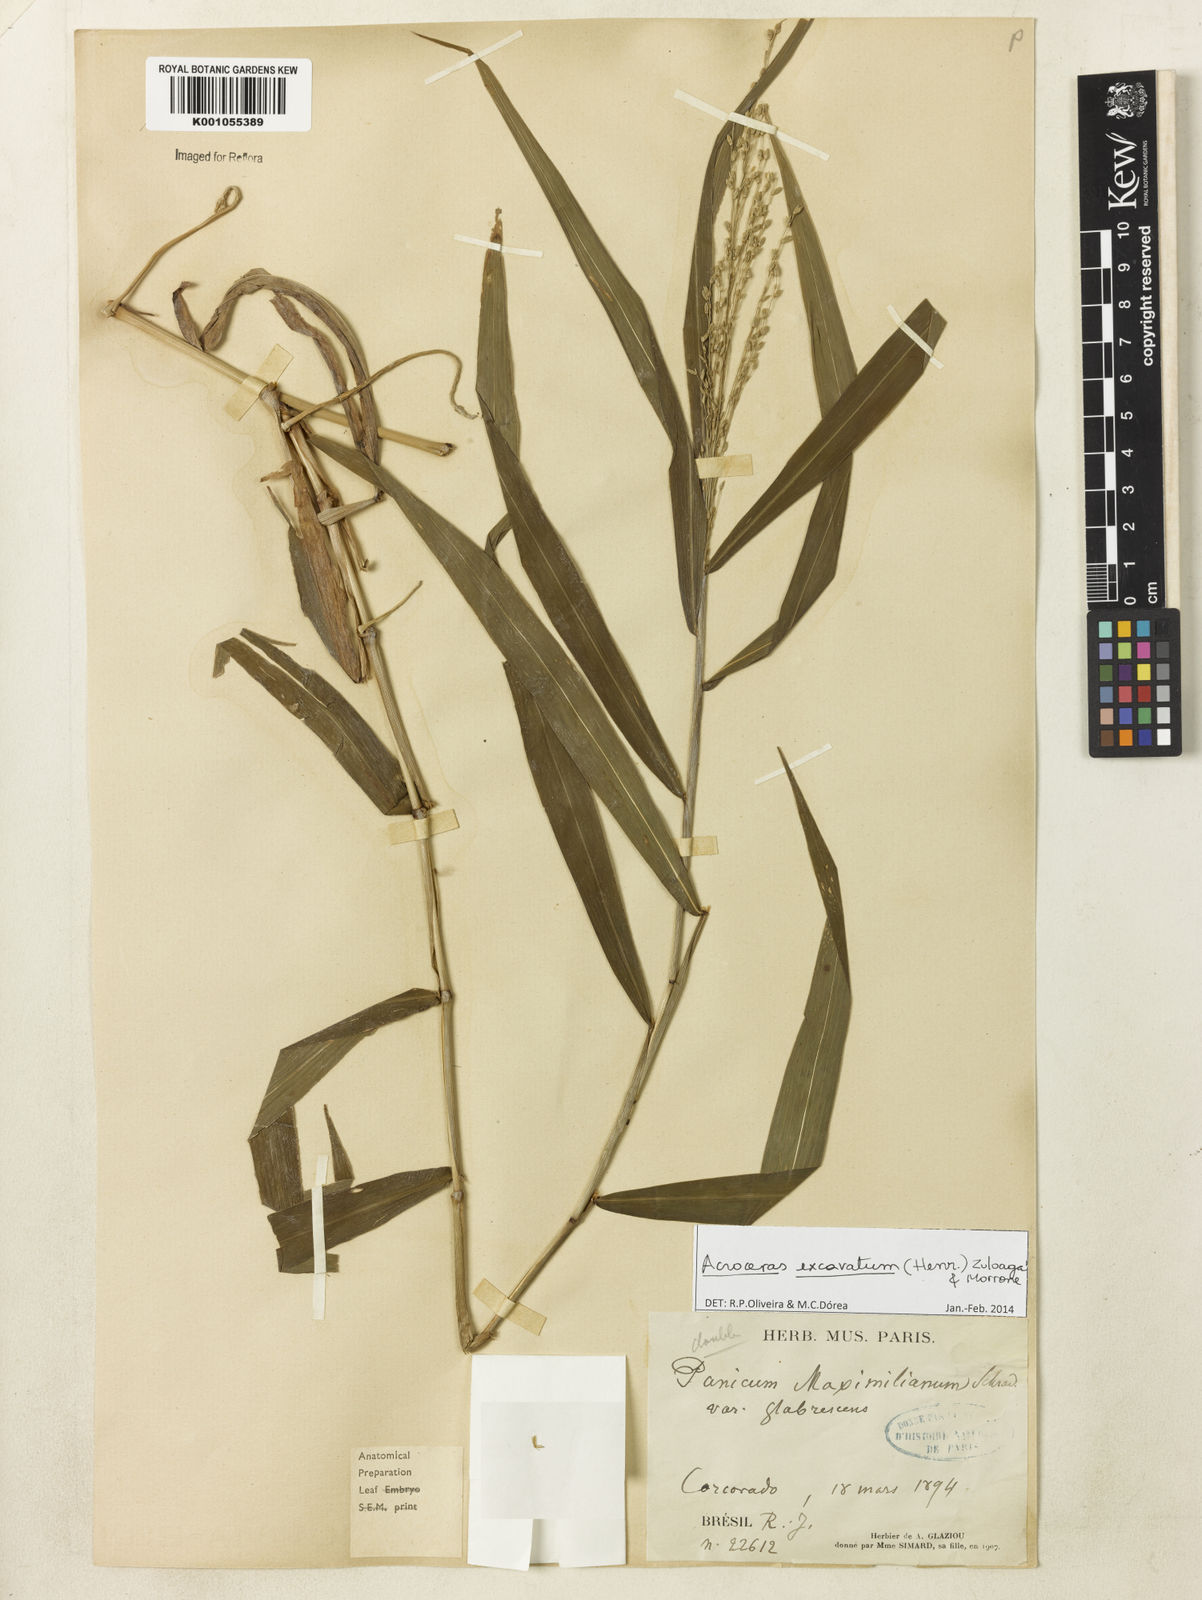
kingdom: Plantae
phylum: Tracheophyta
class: Liliopsida
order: Poales
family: Poaceae
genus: Acroceras
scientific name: Acroceras excavatum
